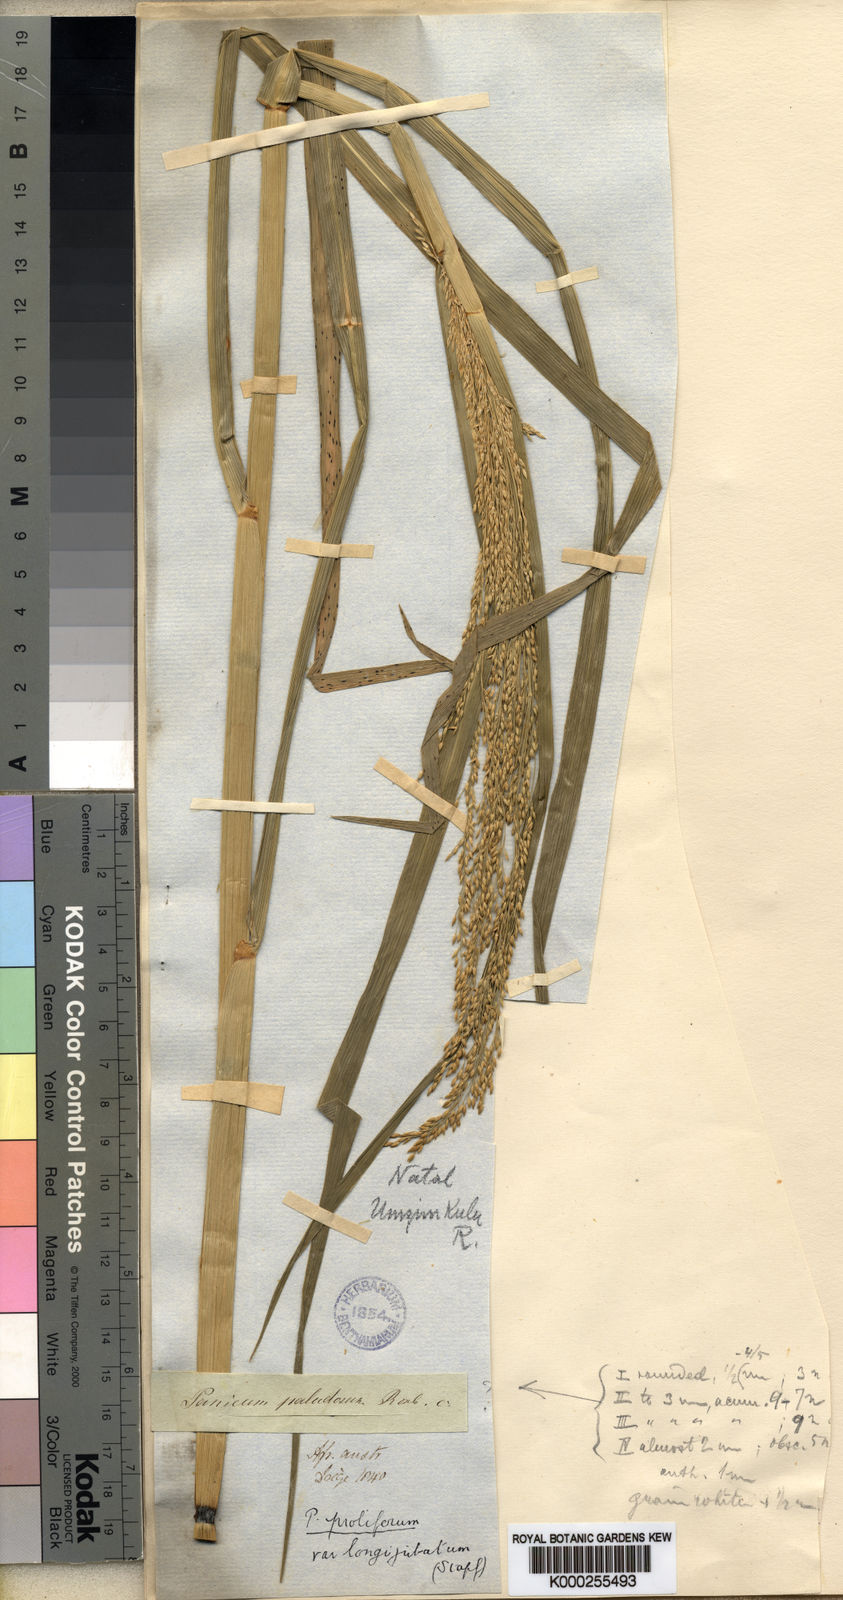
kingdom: Plantae
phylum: Tracheophyta
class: Liliopsida
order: Poales
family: Poaceae
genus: Panicum
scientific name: Panicum subalbidum
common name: Elbow buffalo grass
